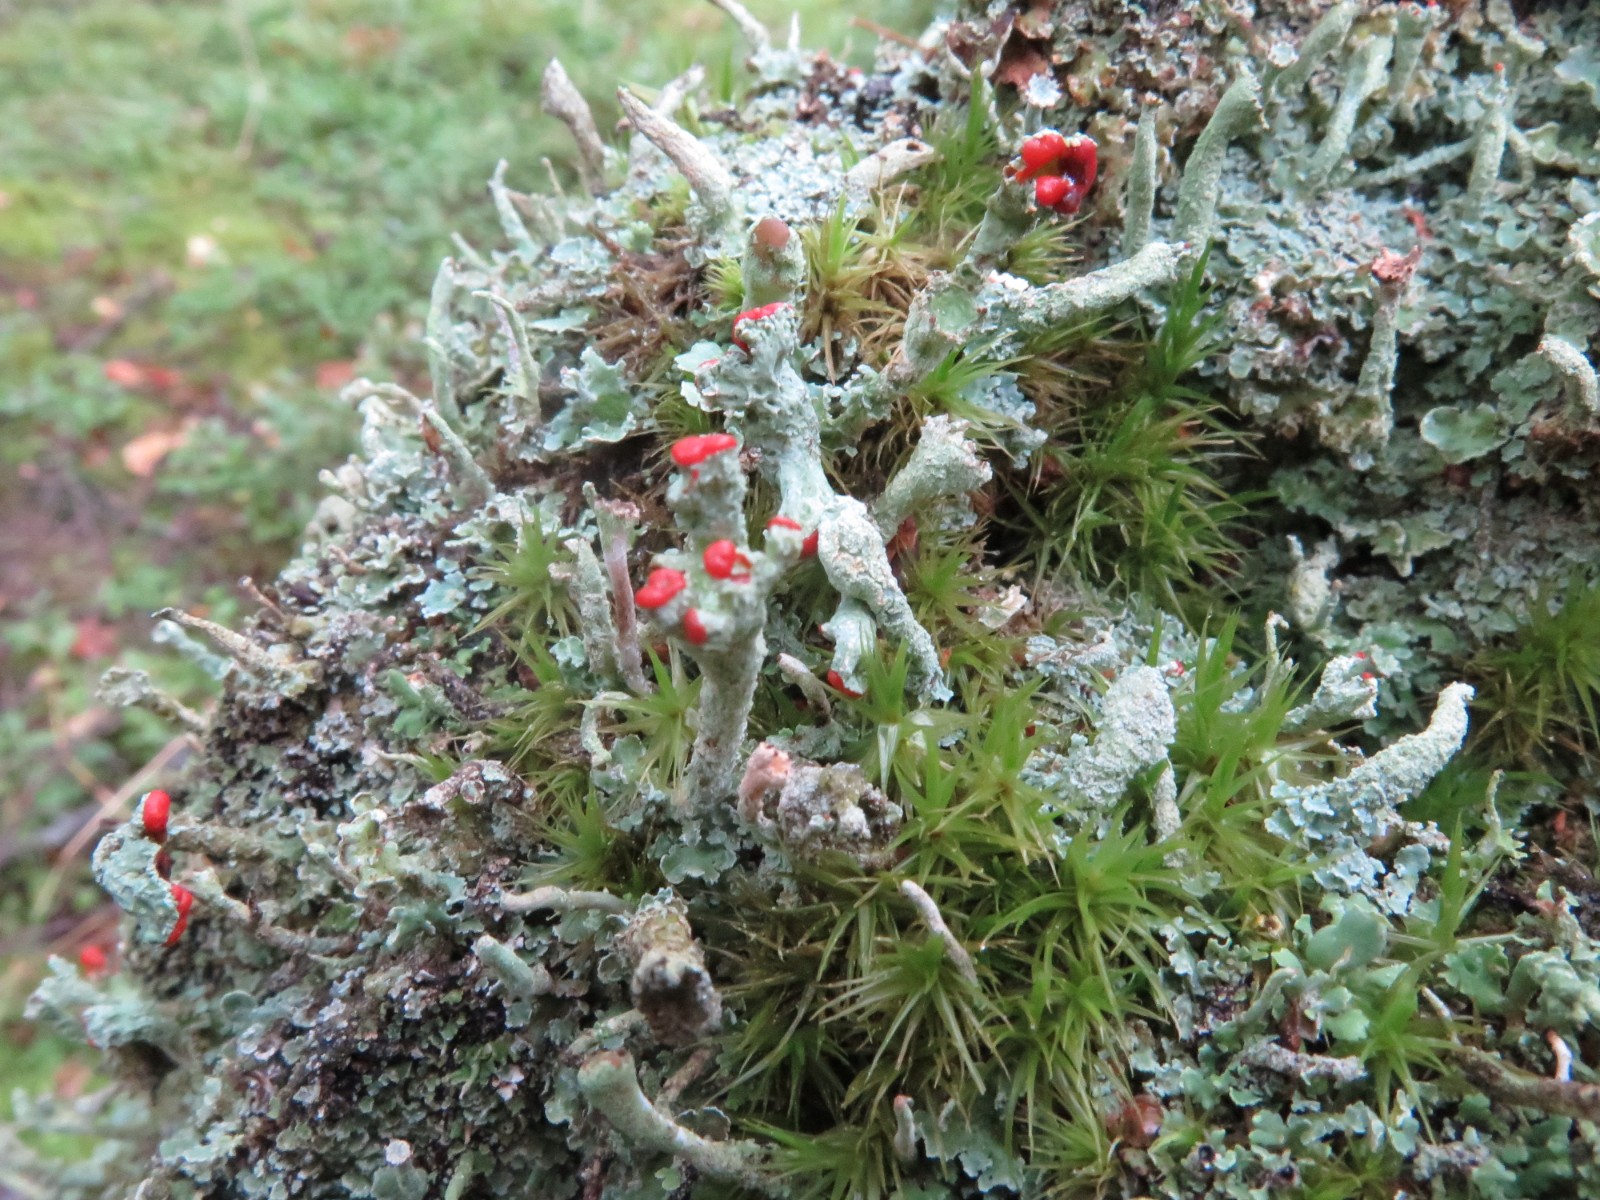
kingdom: Fungi
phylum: Ascomycota
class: Lecanoromycetes
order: Lecanorales
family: Cladoniaceae
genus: Cladonia
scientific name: Cladonia floerkeana
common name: lakrød bægerlav
